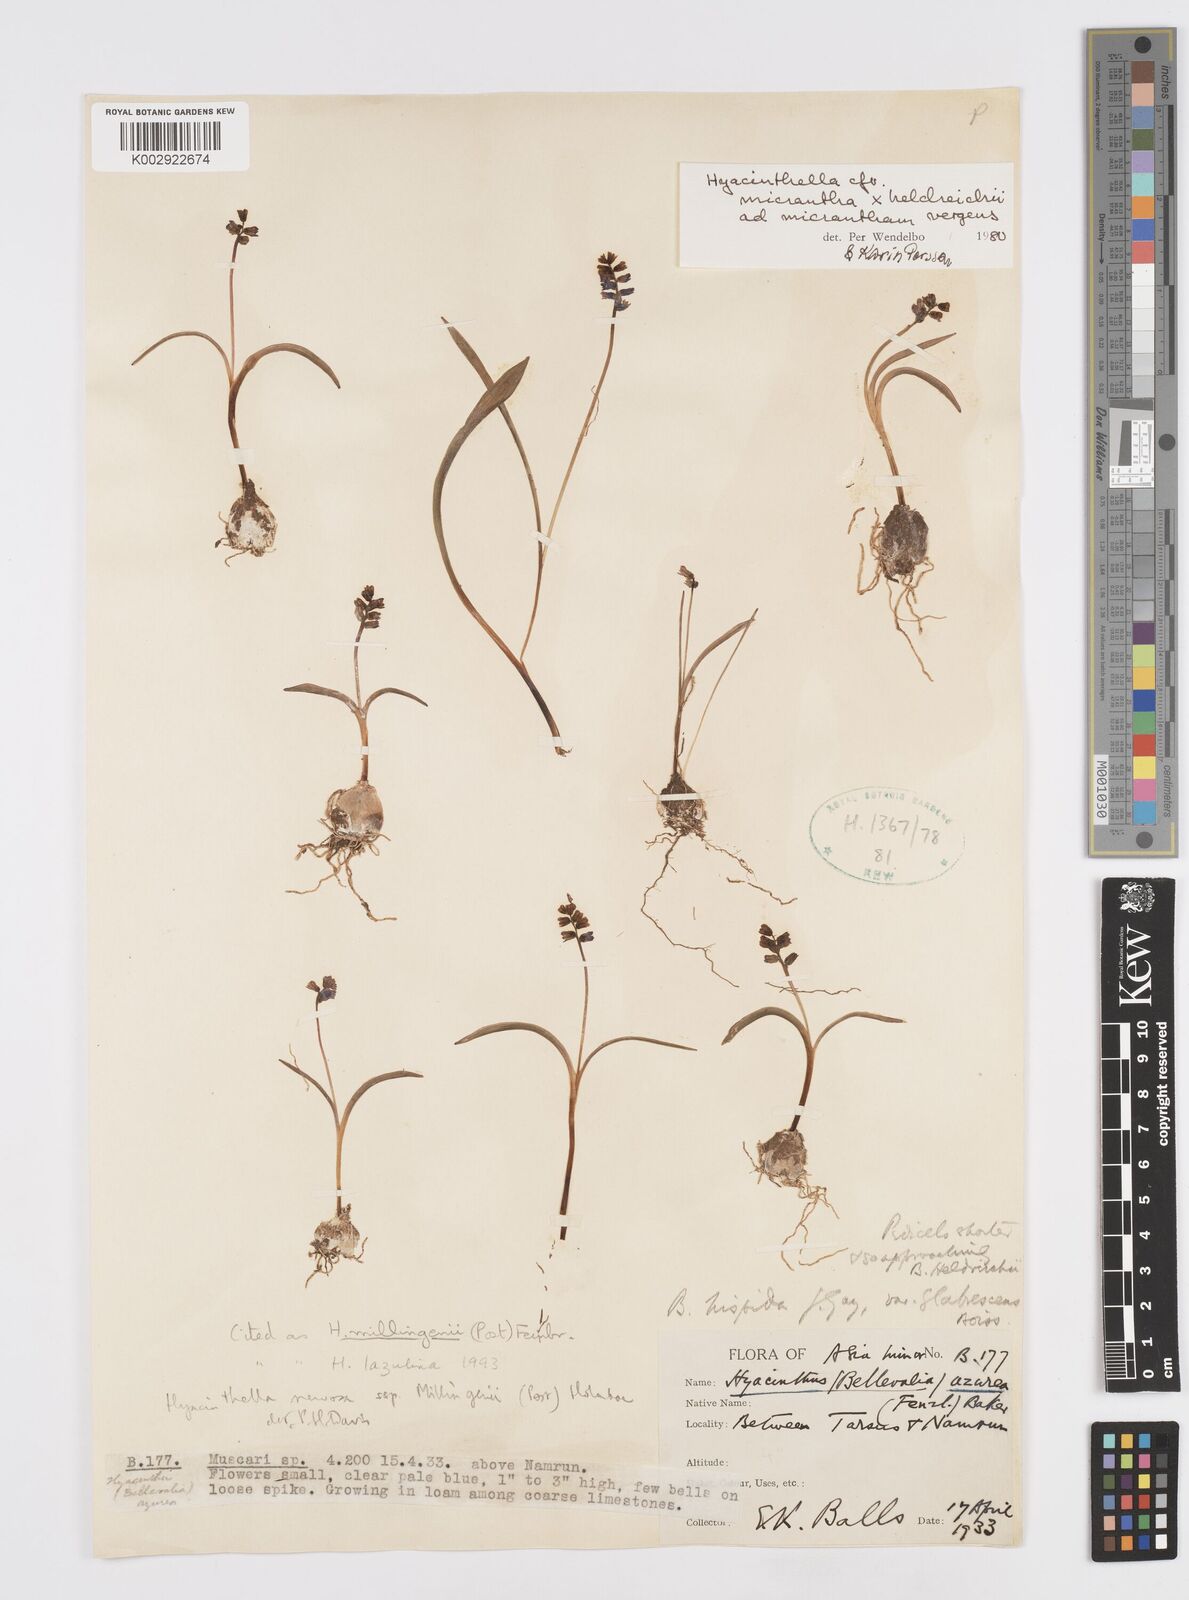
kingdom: Plantae
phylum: Tracheophyta
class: Liliopsida
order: Asparagales
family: Asparagaceae
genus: Hyacinthella
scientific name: Hyacinthella lazulina
